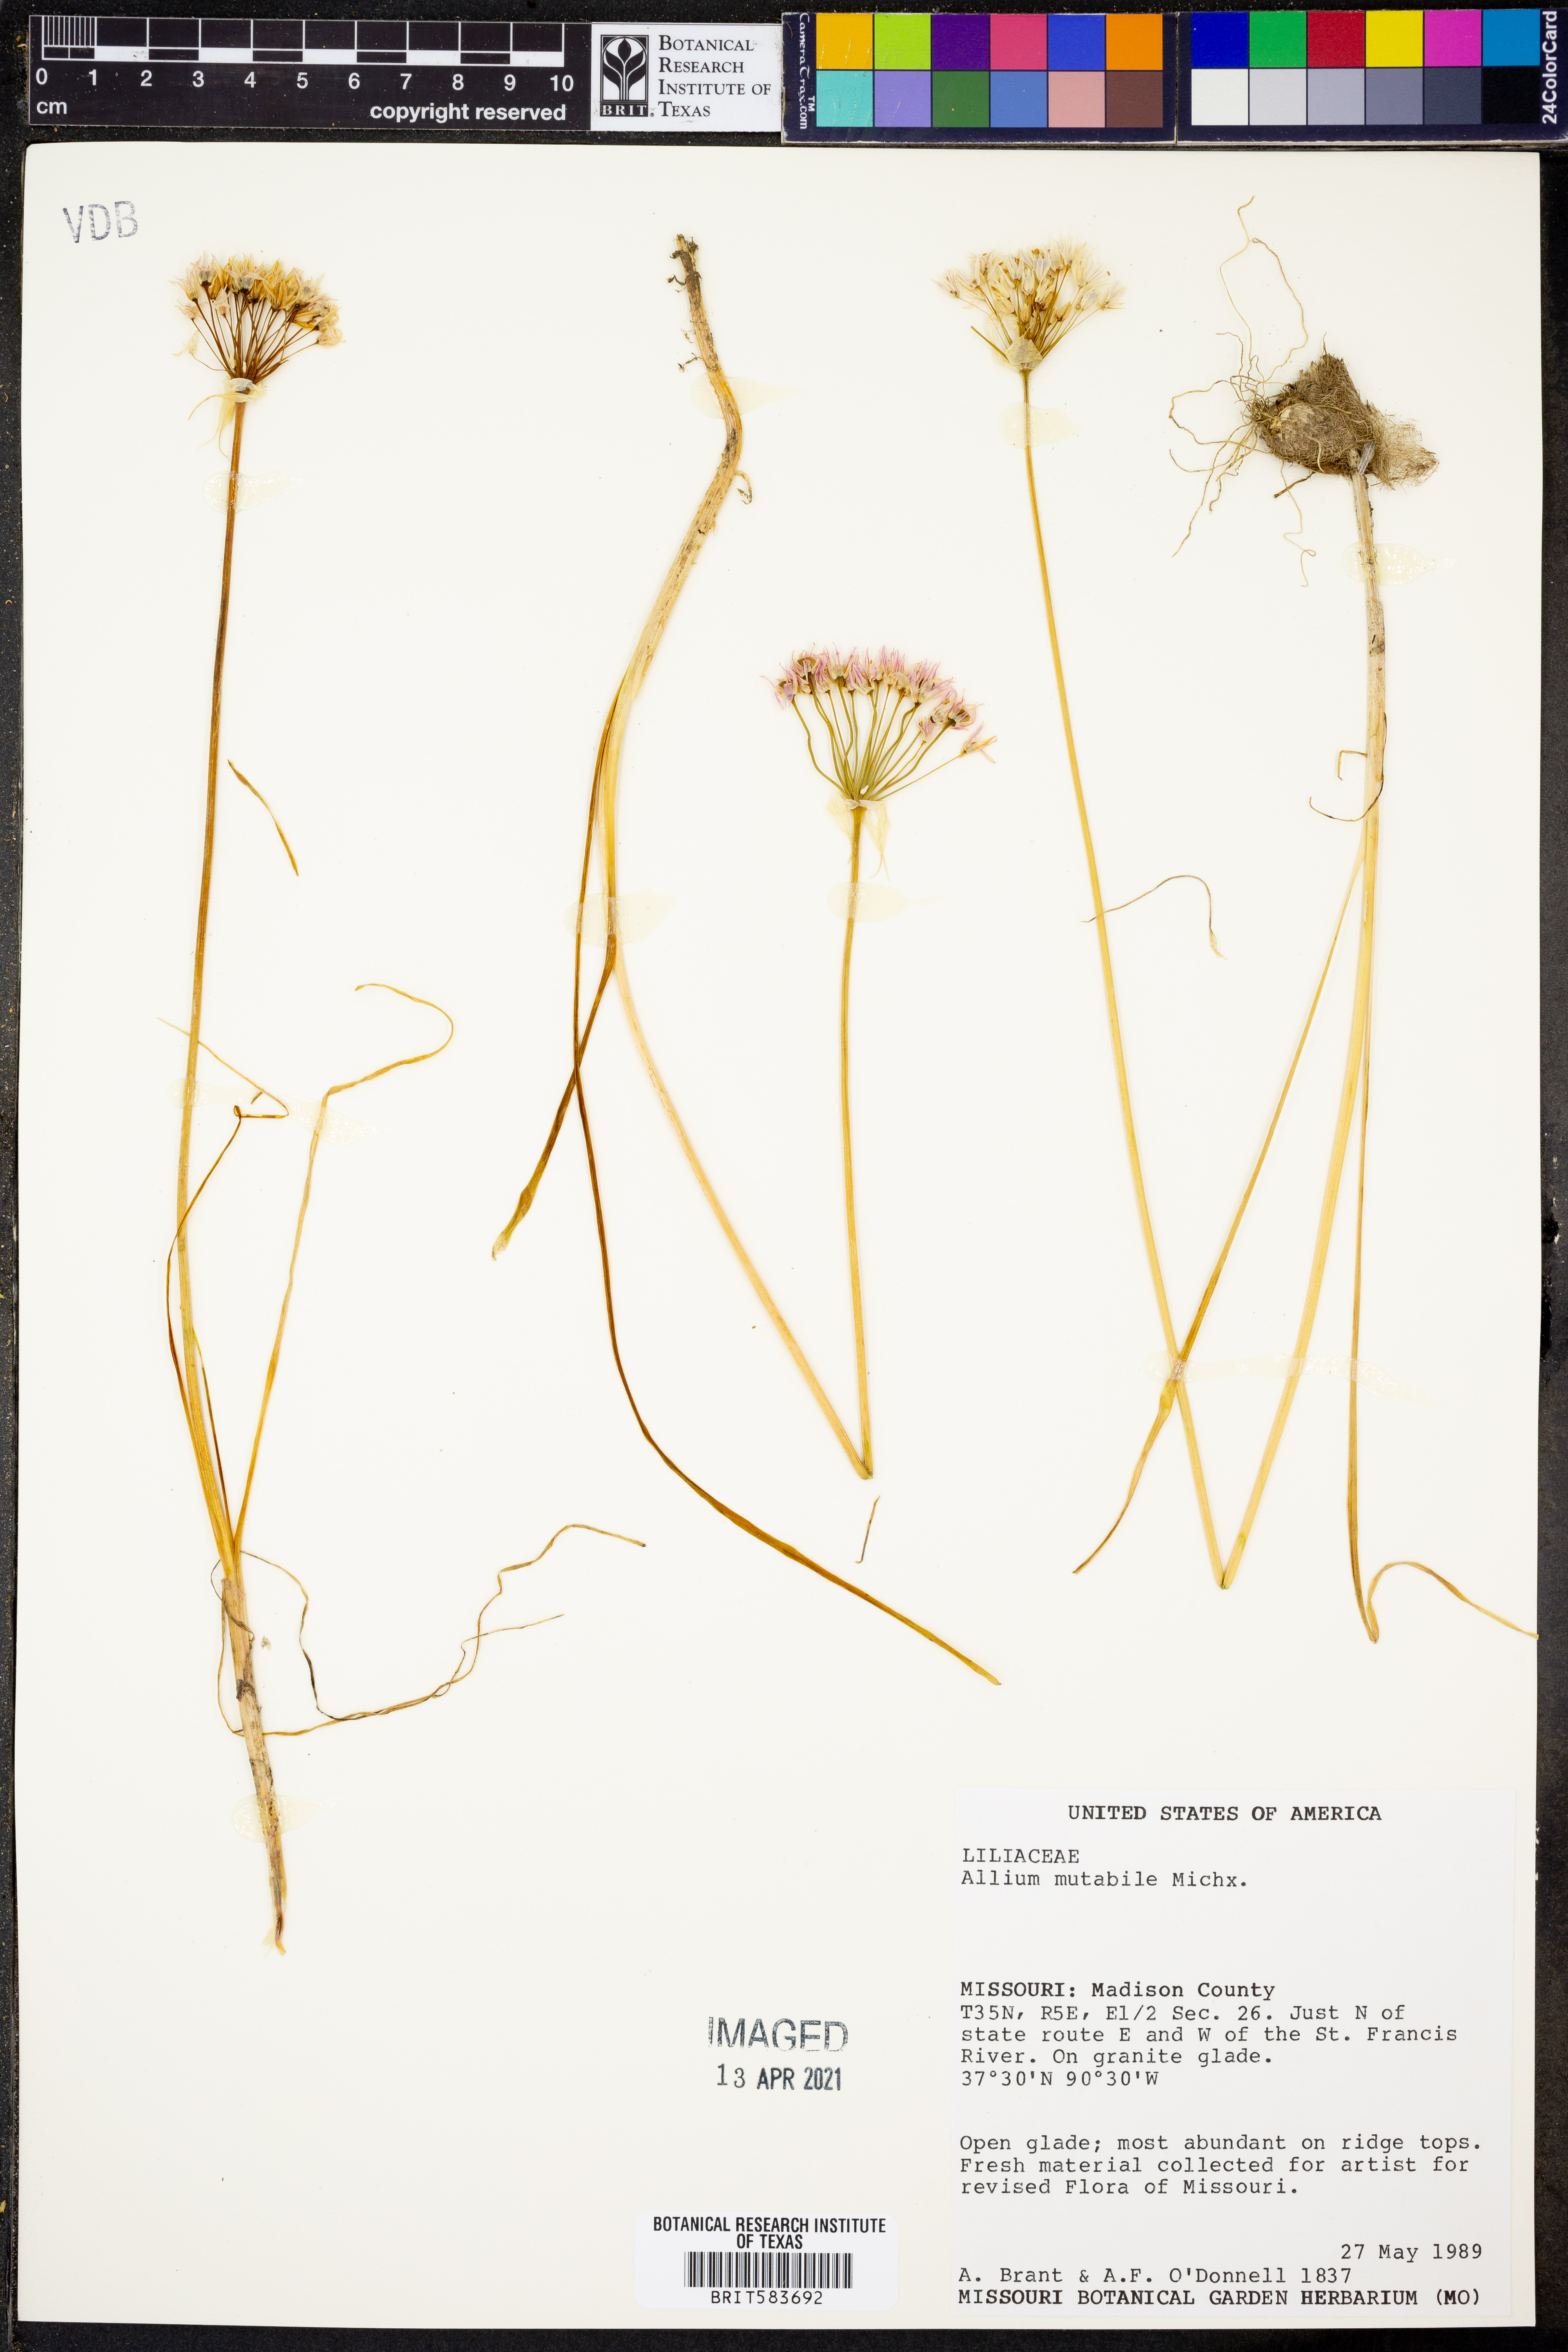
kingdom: Plantae
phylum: Tracheophyta
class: Liliopsida
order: Asparagales
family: Amaryllidaceae
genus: Allium
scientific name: Allium canadense
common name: Meadow garlic
